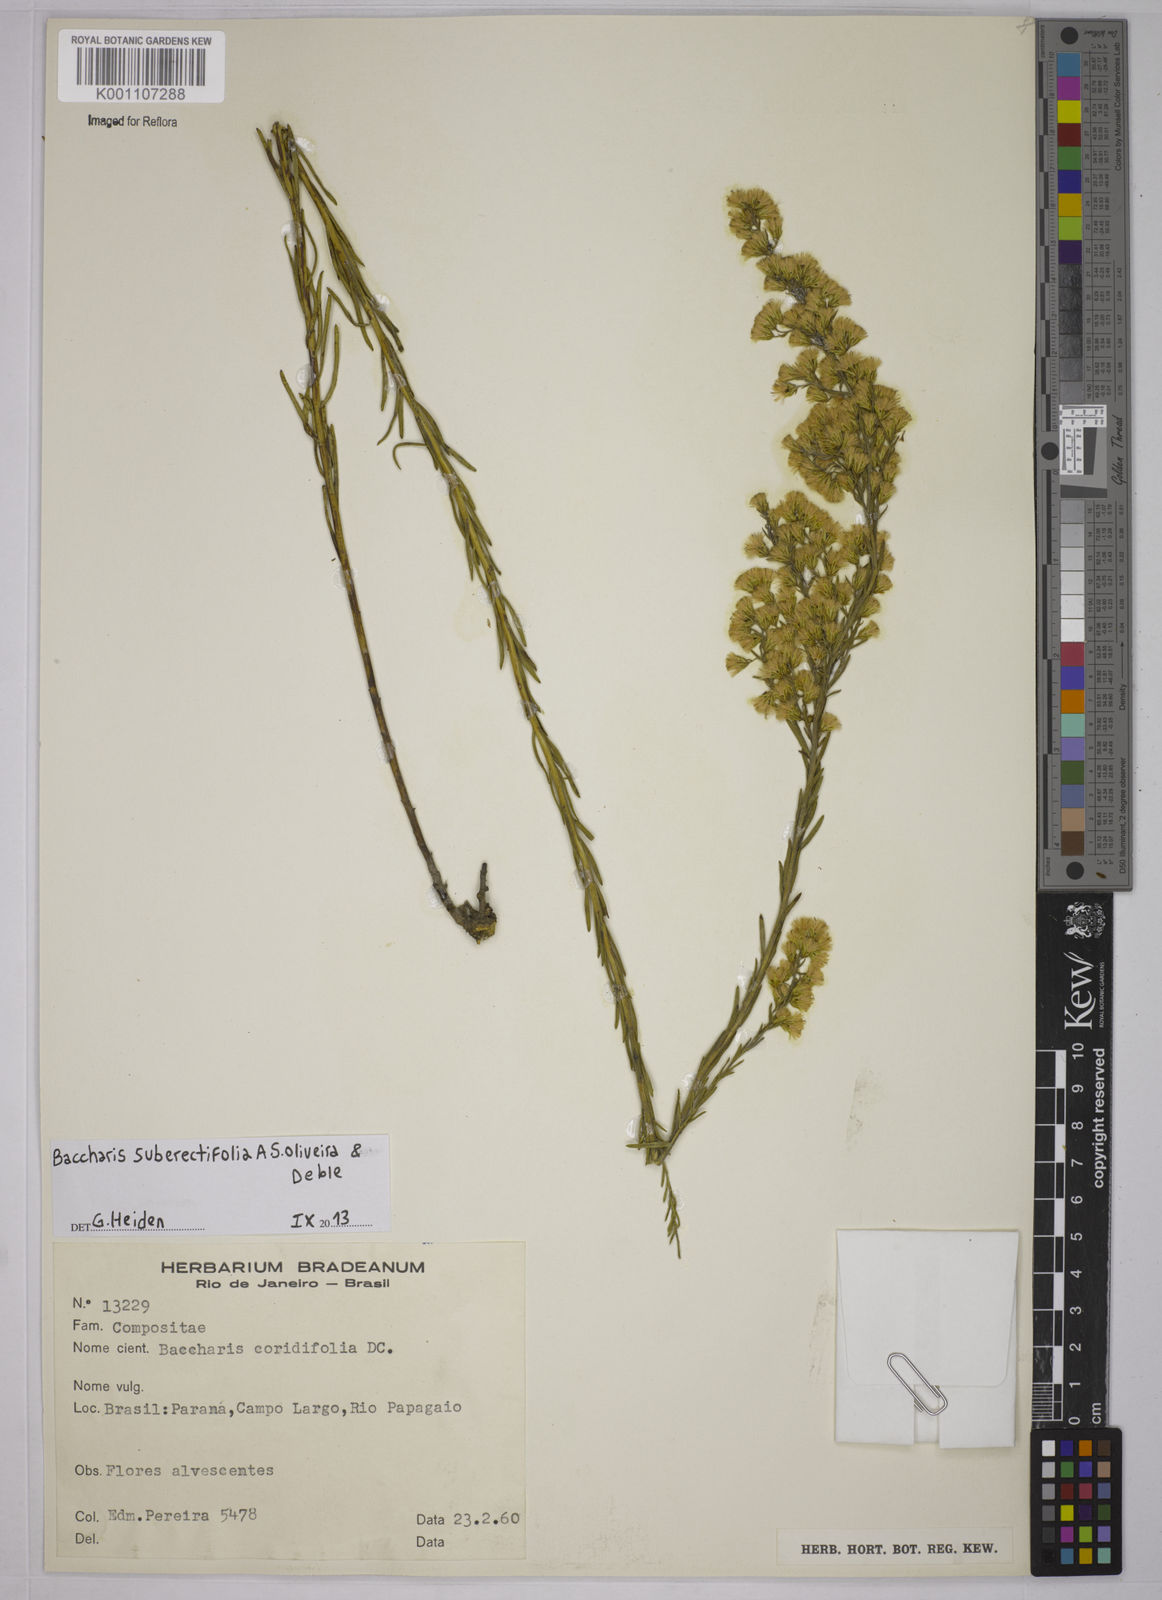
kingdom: Plantae
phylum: Tracheophyta
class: Magnoliopsida
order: Asterales
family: Asteraceae
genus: Baccharis
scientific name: Baccharis suberectifolia
